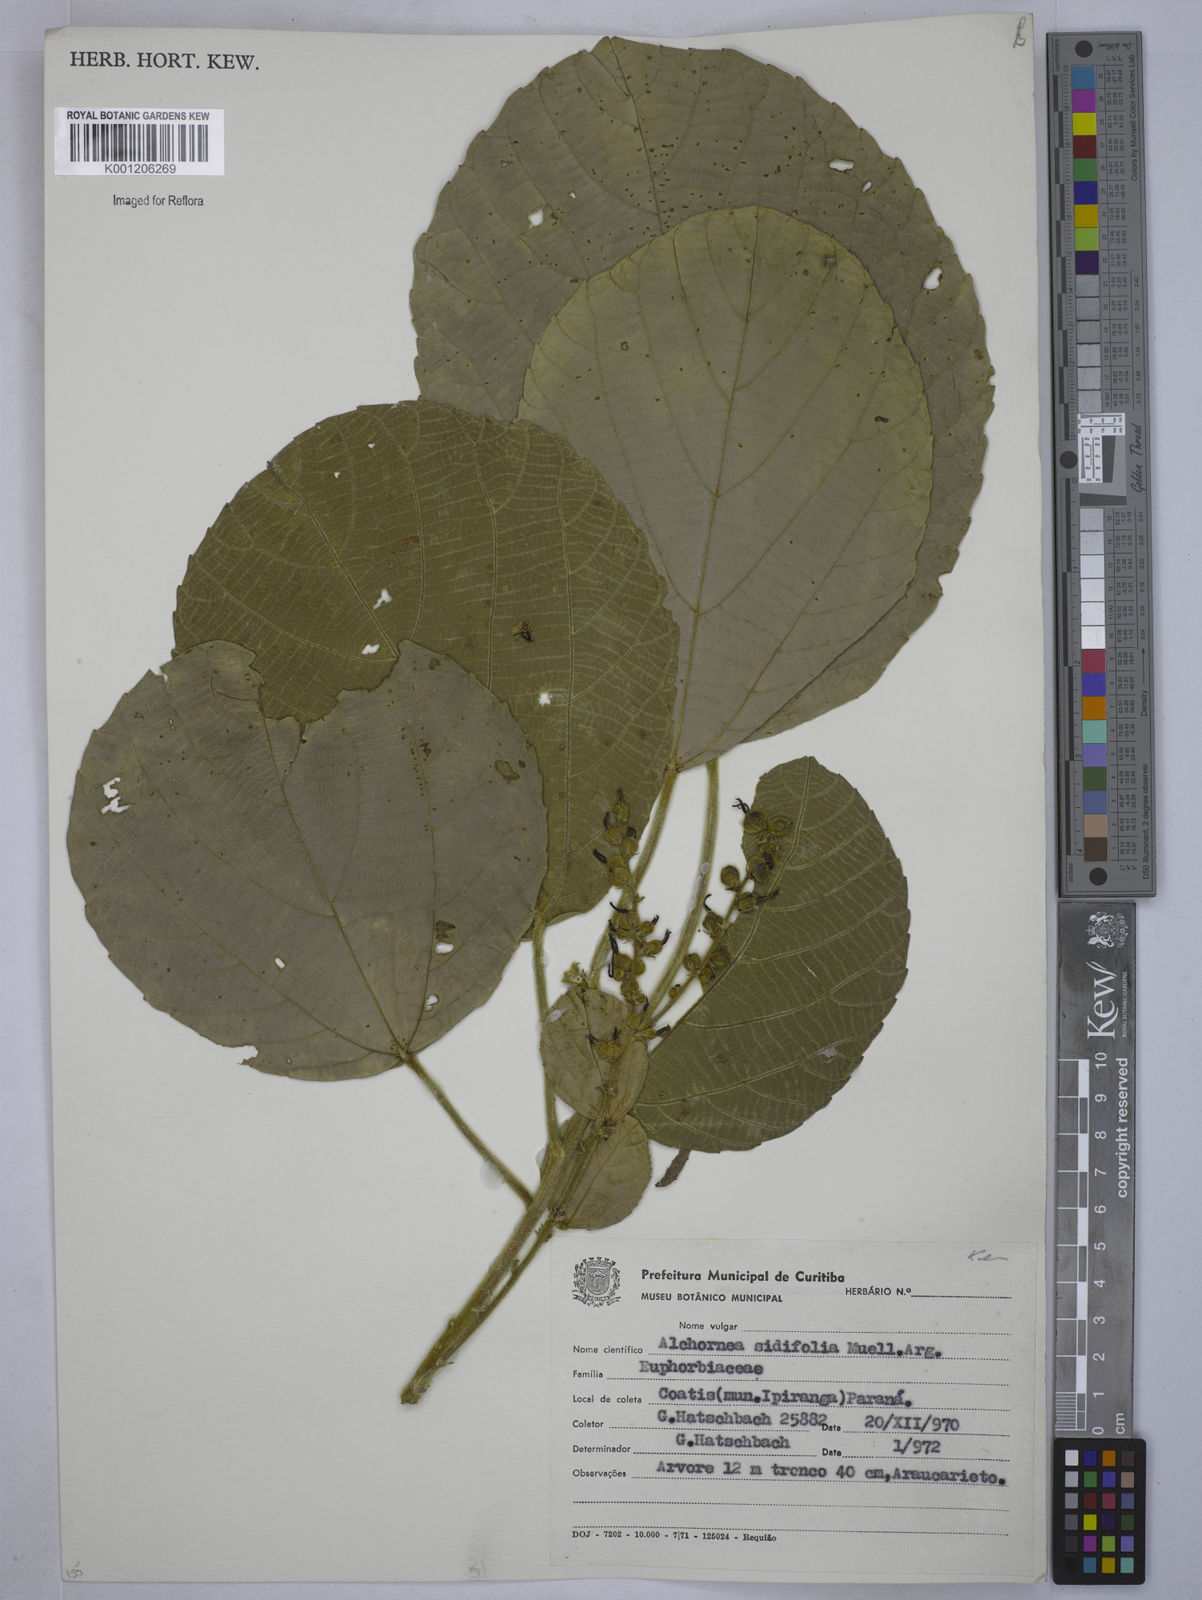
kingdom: Plantae
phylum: Tracheophyta
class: Magnoliopsida
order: Malpighiales
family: Euphorbiaceae
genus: Alchornea
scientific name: Alchornea
